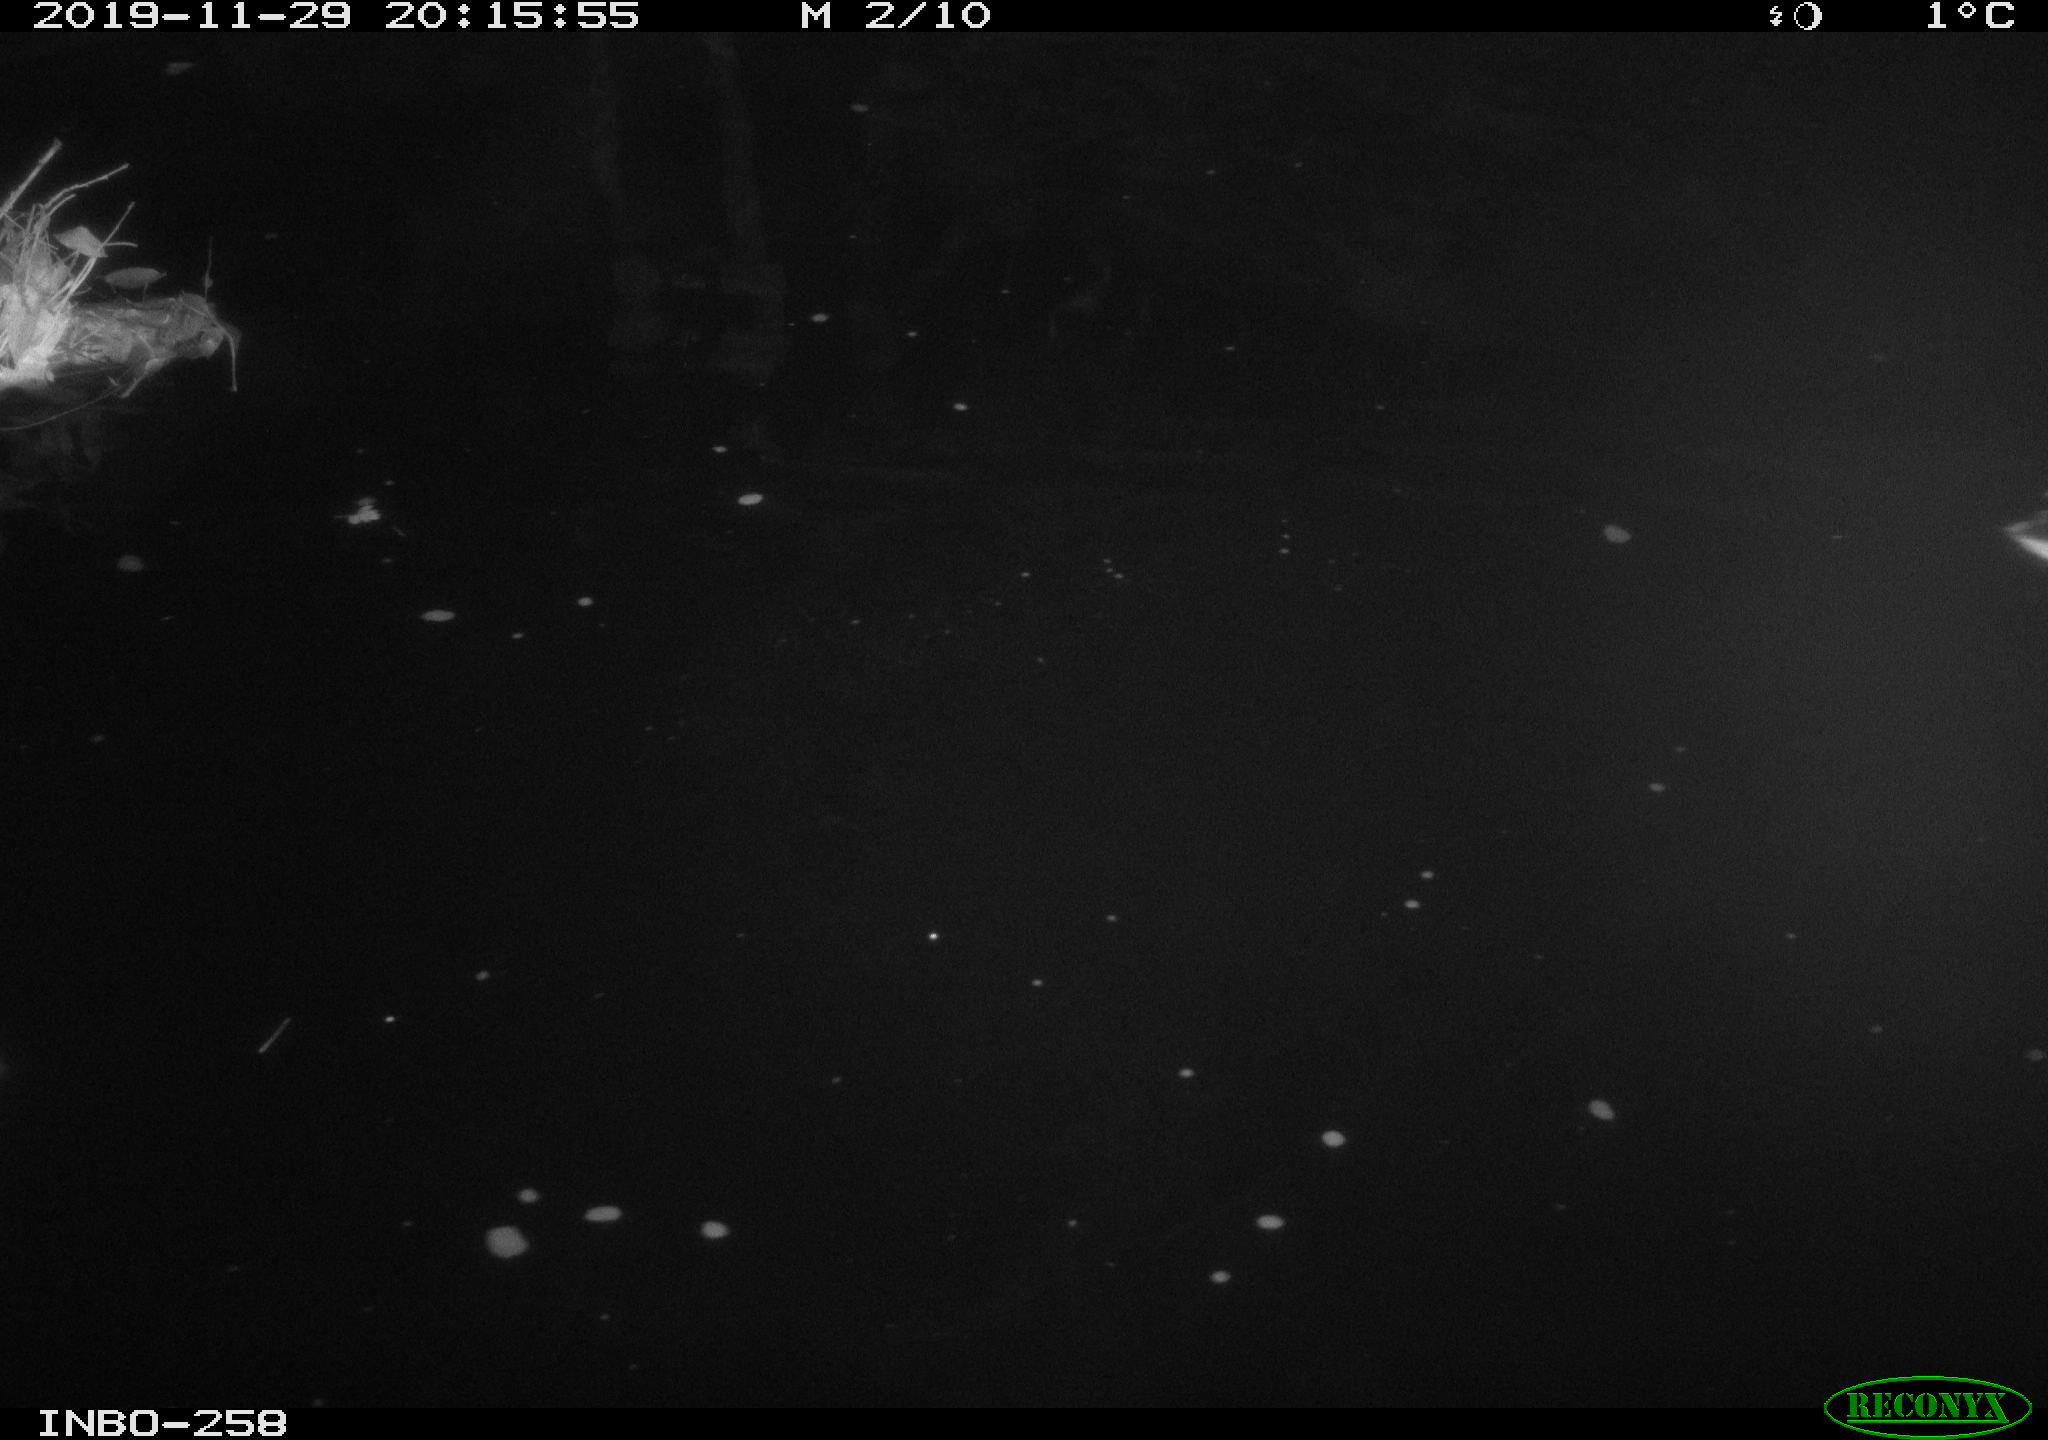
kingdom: Animalia
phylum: Chordata
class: Aves
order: Anseriformes
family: Anatidae
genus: Anas
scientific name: Anas platyrhynchos
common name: Mallard
